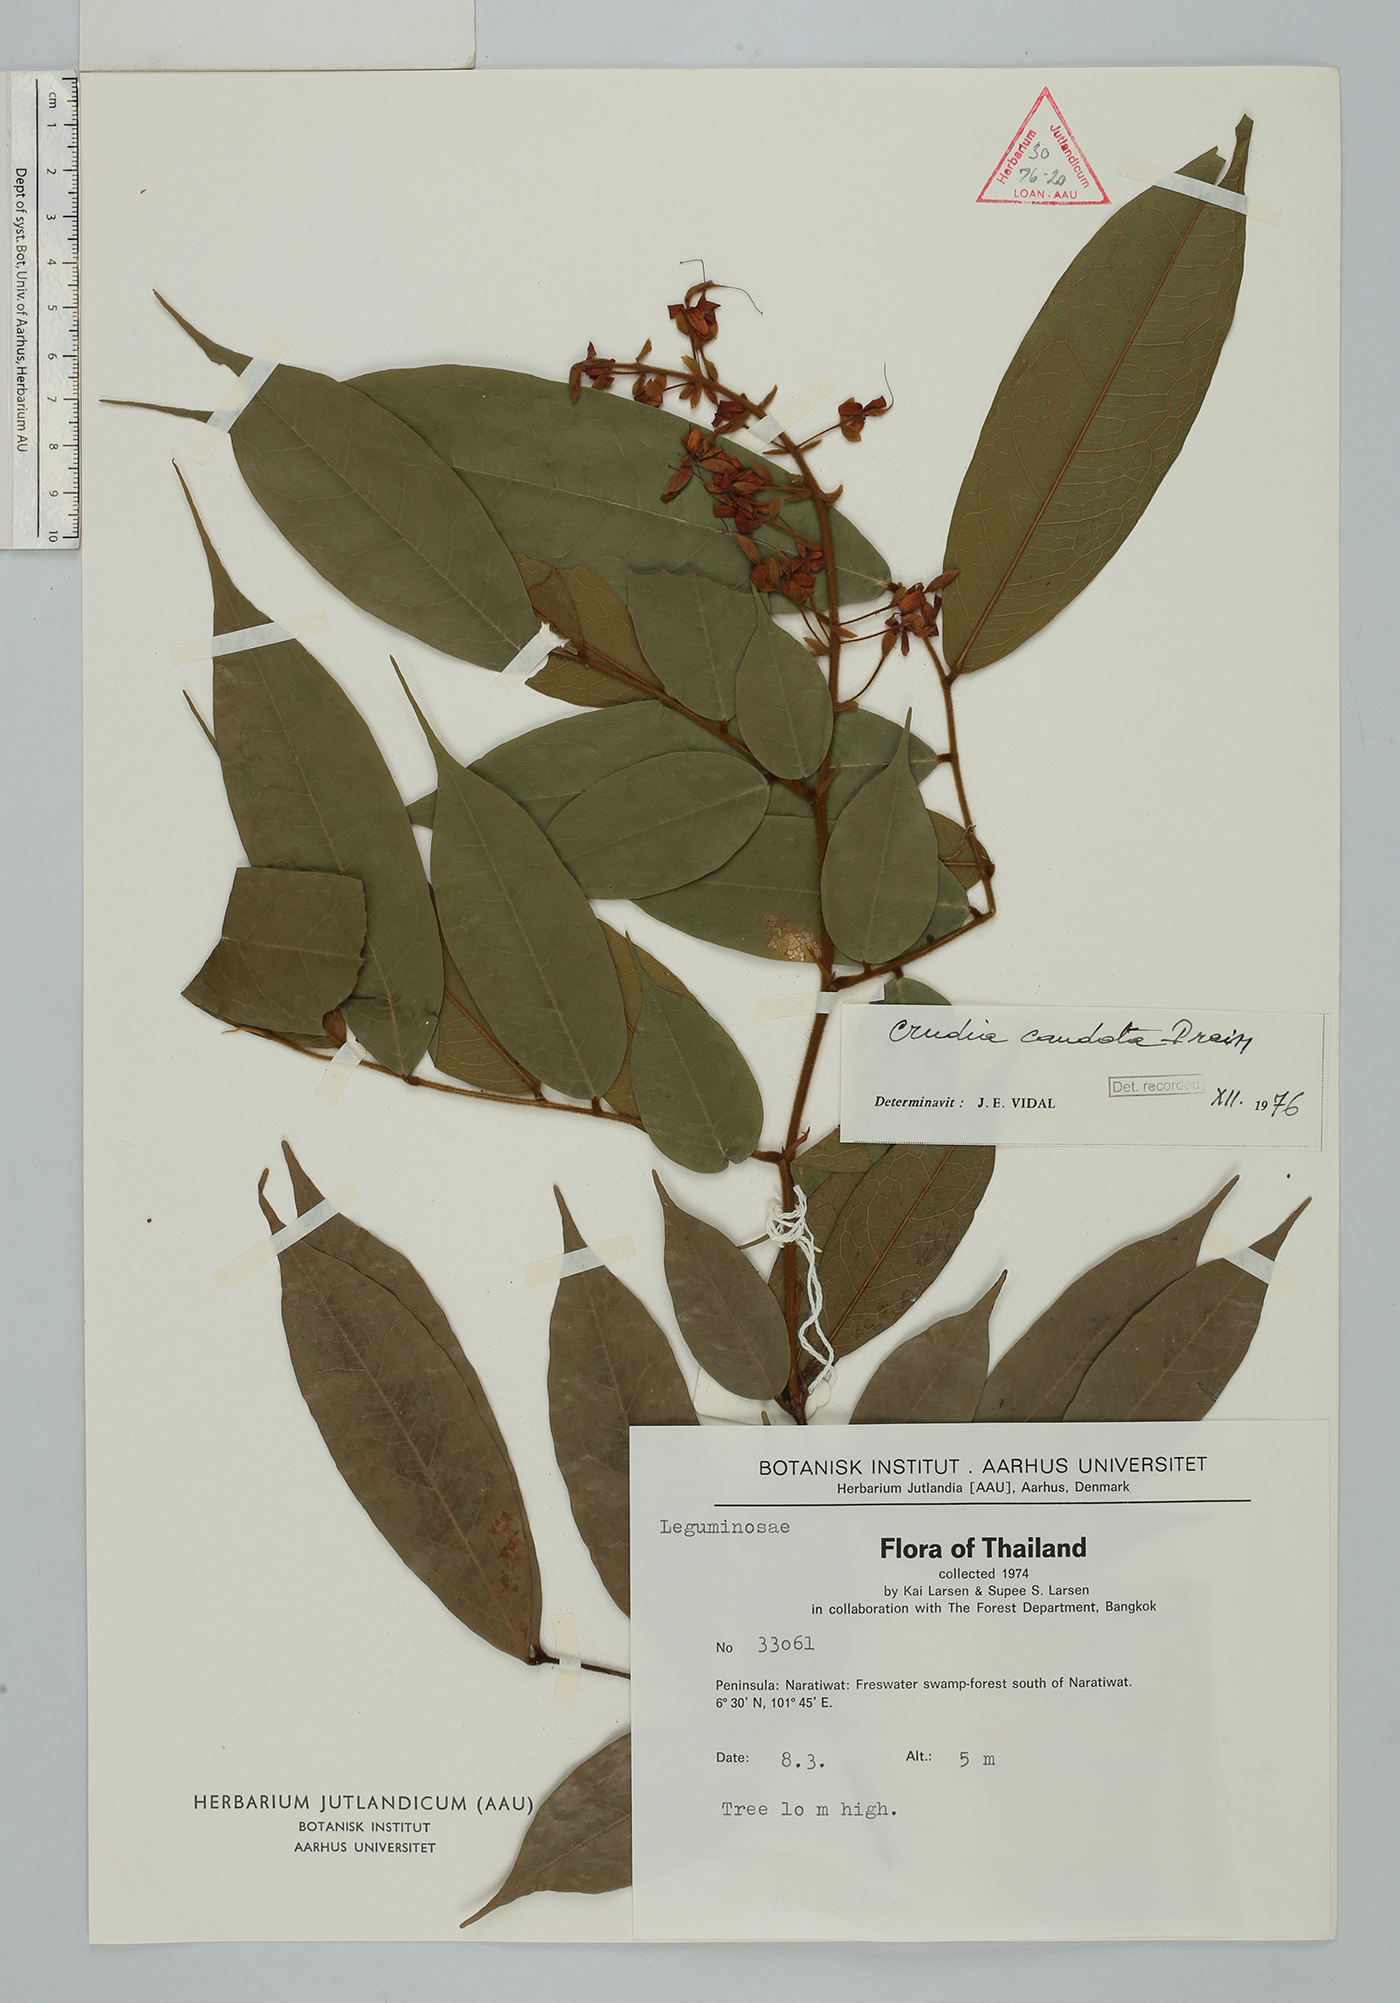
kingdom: Plantae
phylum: Tracheophyta
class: Magnoliopsida
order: Fabales
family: Fabaceae
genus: Crudia
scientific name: Crudia caudata
